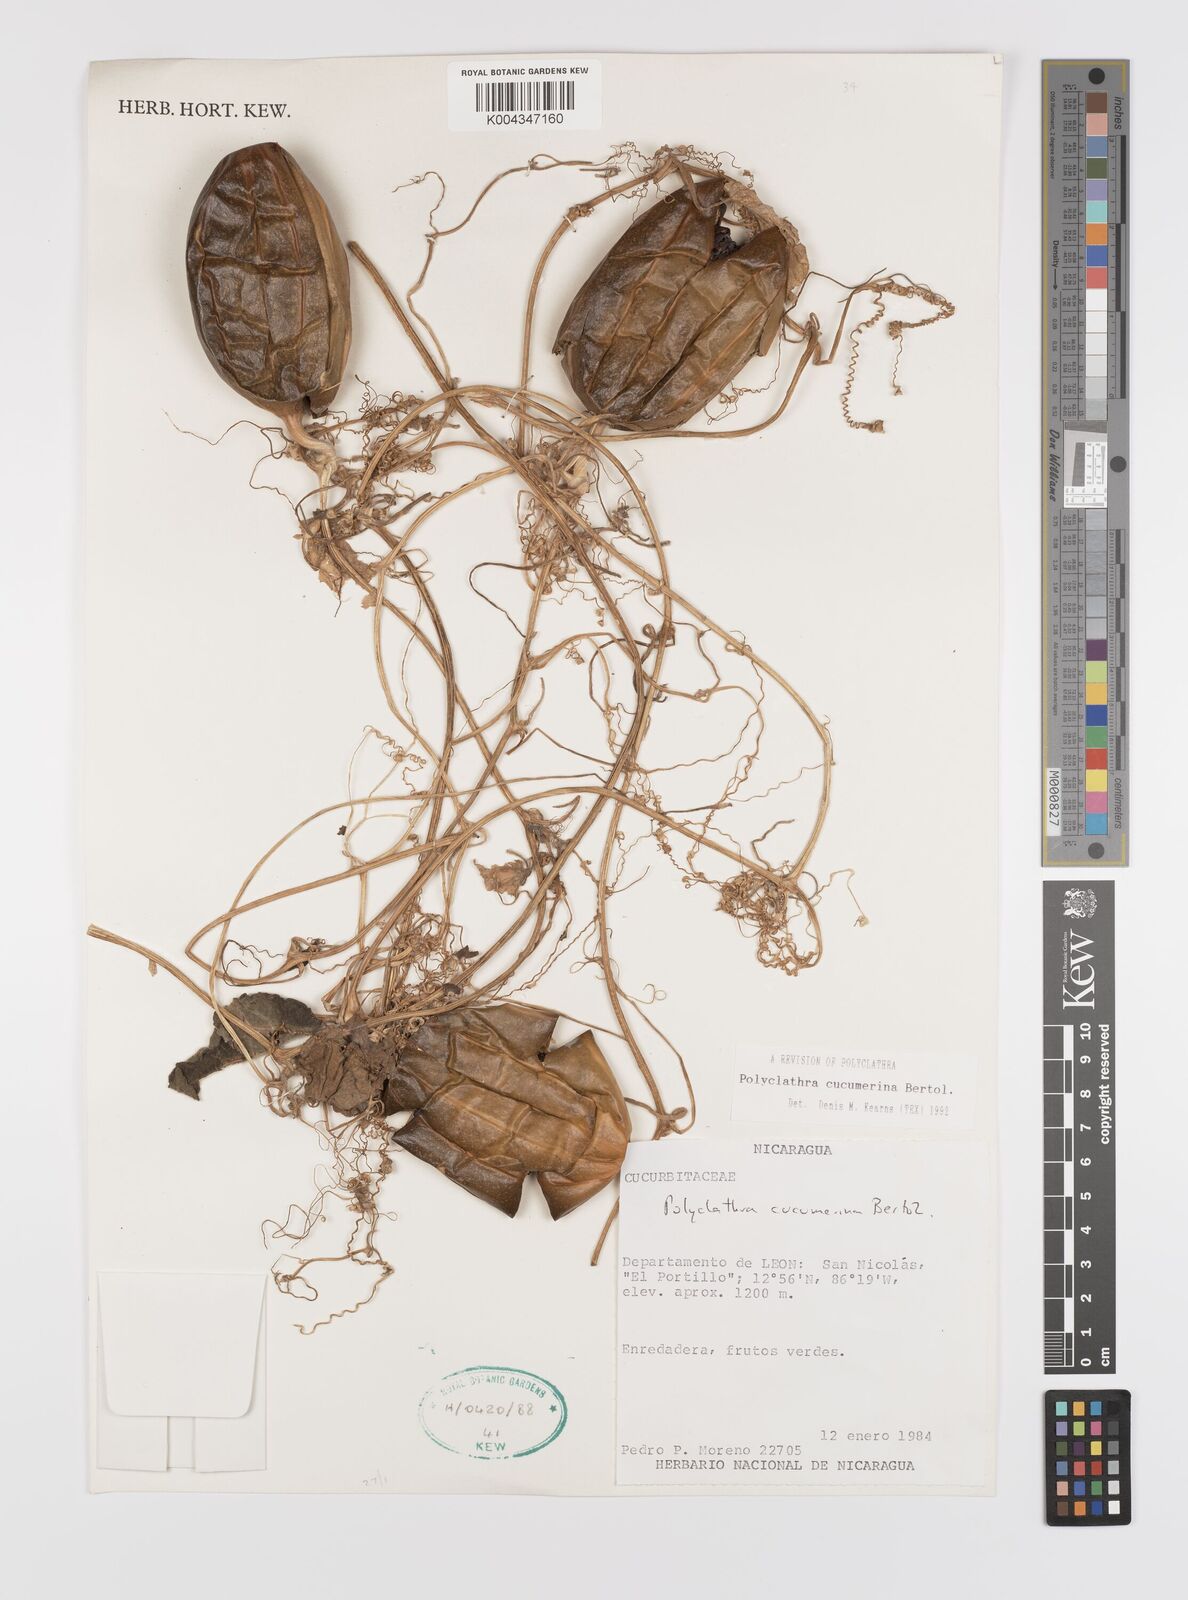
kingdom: Plantae
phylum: Tracheophyta
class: Magnoliopsida
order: Cucurbitales
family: Cucurbitaceae
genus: Polyclathra
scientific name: Polyclathra cucumerina
